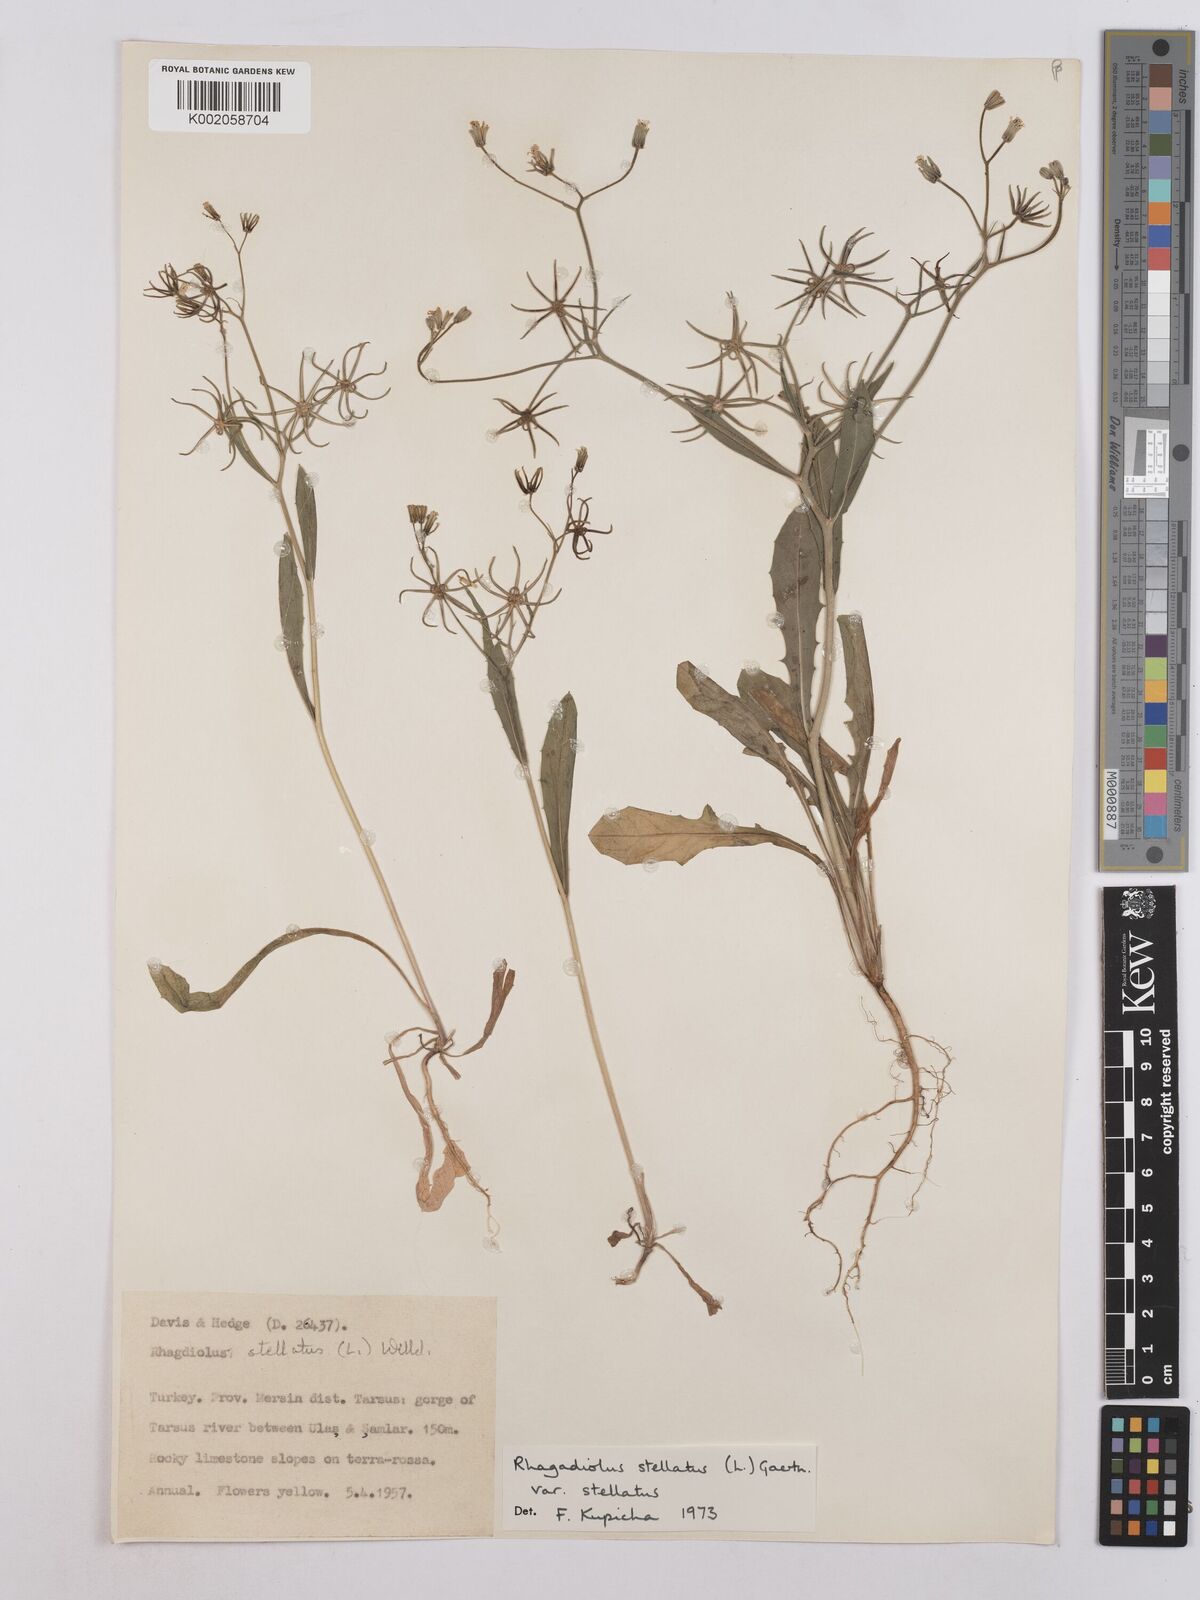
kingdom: Plantae
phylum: Tracheophyta
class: Magnoliopsida
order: Asterales
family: Asteraceae
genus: Rhagadiolus
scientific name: Rhagadiolus stellatus
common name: Star hawkbit
